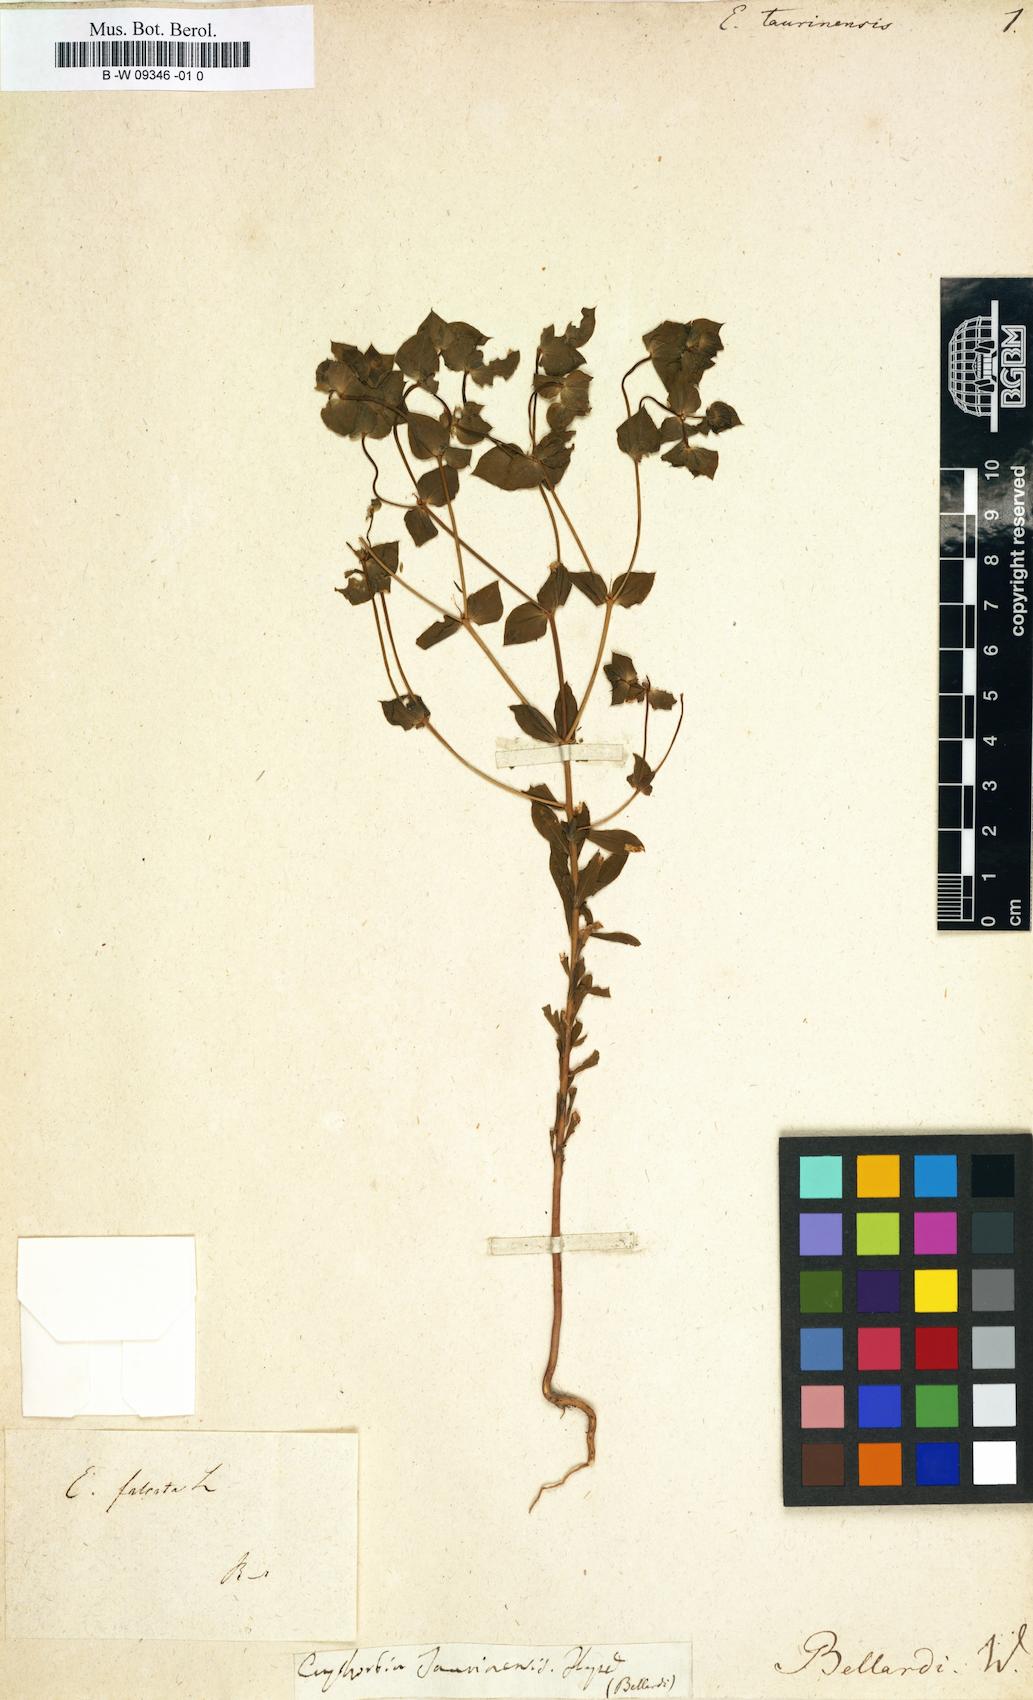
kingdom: Plantae
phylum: Tracheophyta
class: Magnoliopsida
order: Malpighiales
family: Euphorbiaceae
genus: Euphorbia
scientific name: Euphorbia taurinensis
